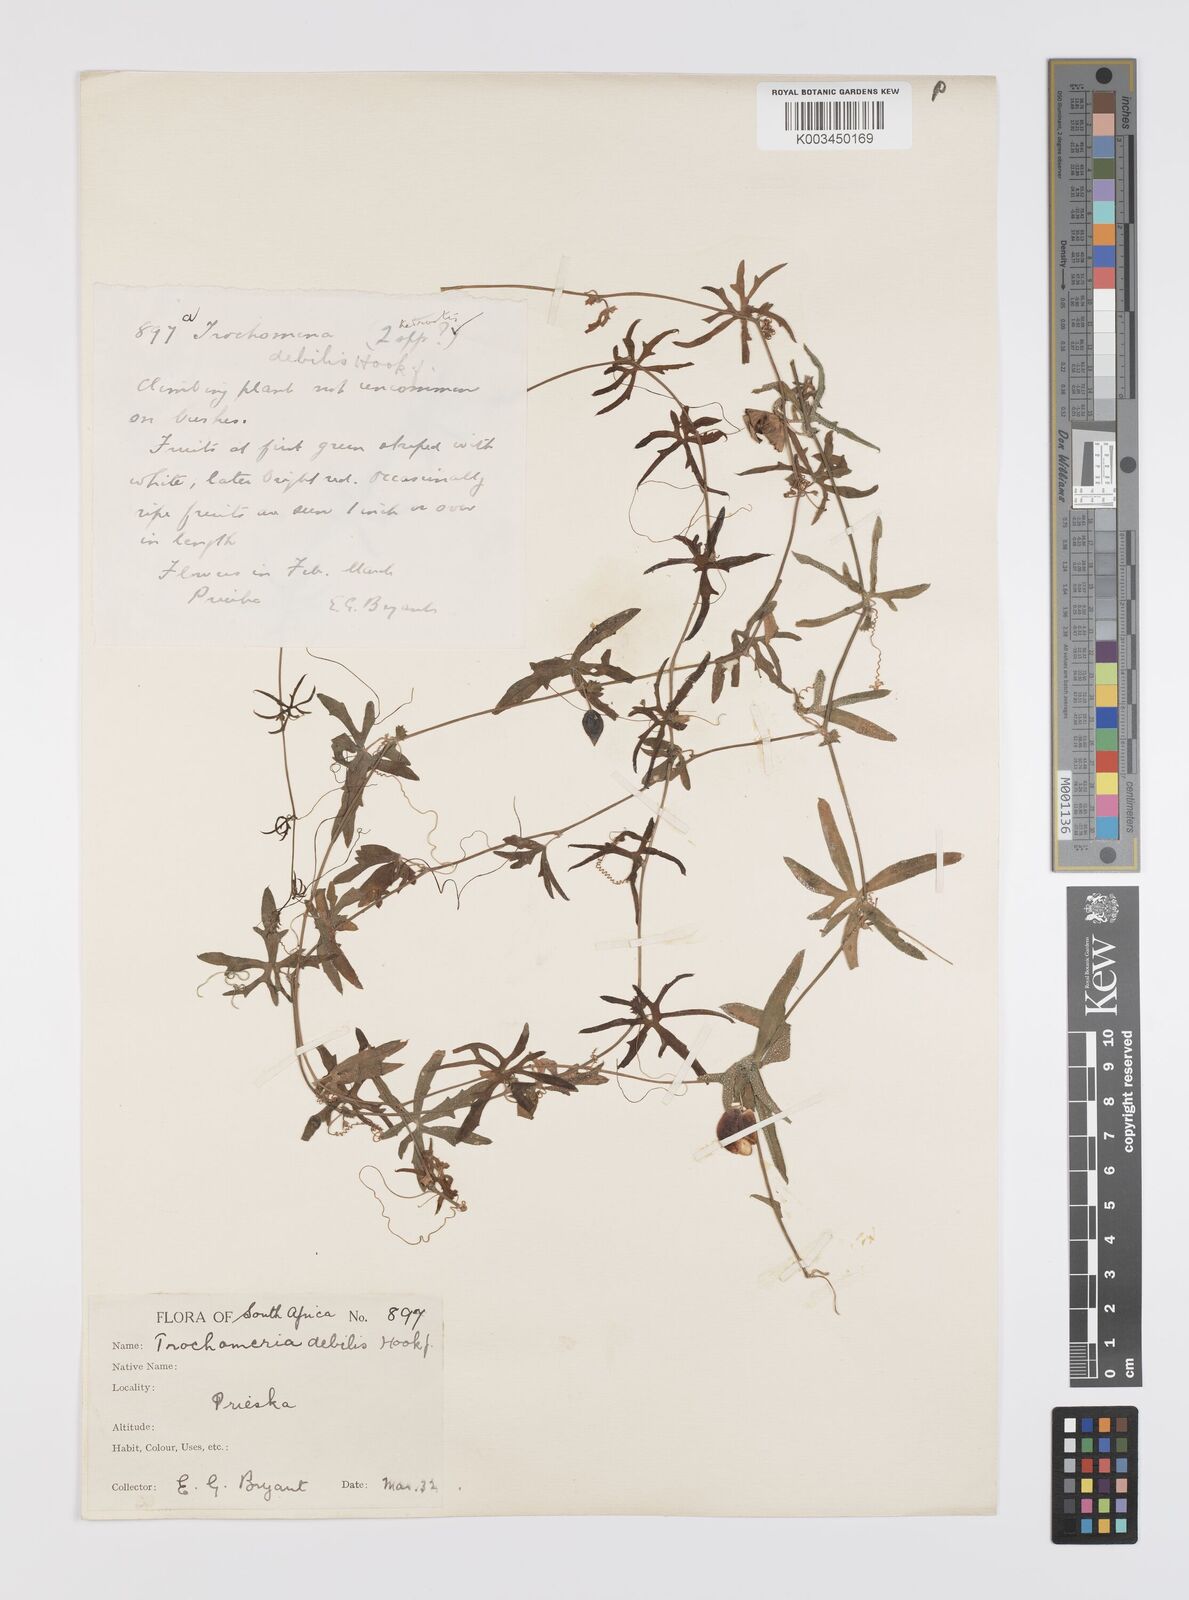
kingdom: Plantae
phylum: Tracheophyta
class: Magnoliopsida
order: Cucurbitales
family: Cucurbitaceae
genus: Trochomeria
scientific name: Trochomeria debilis
